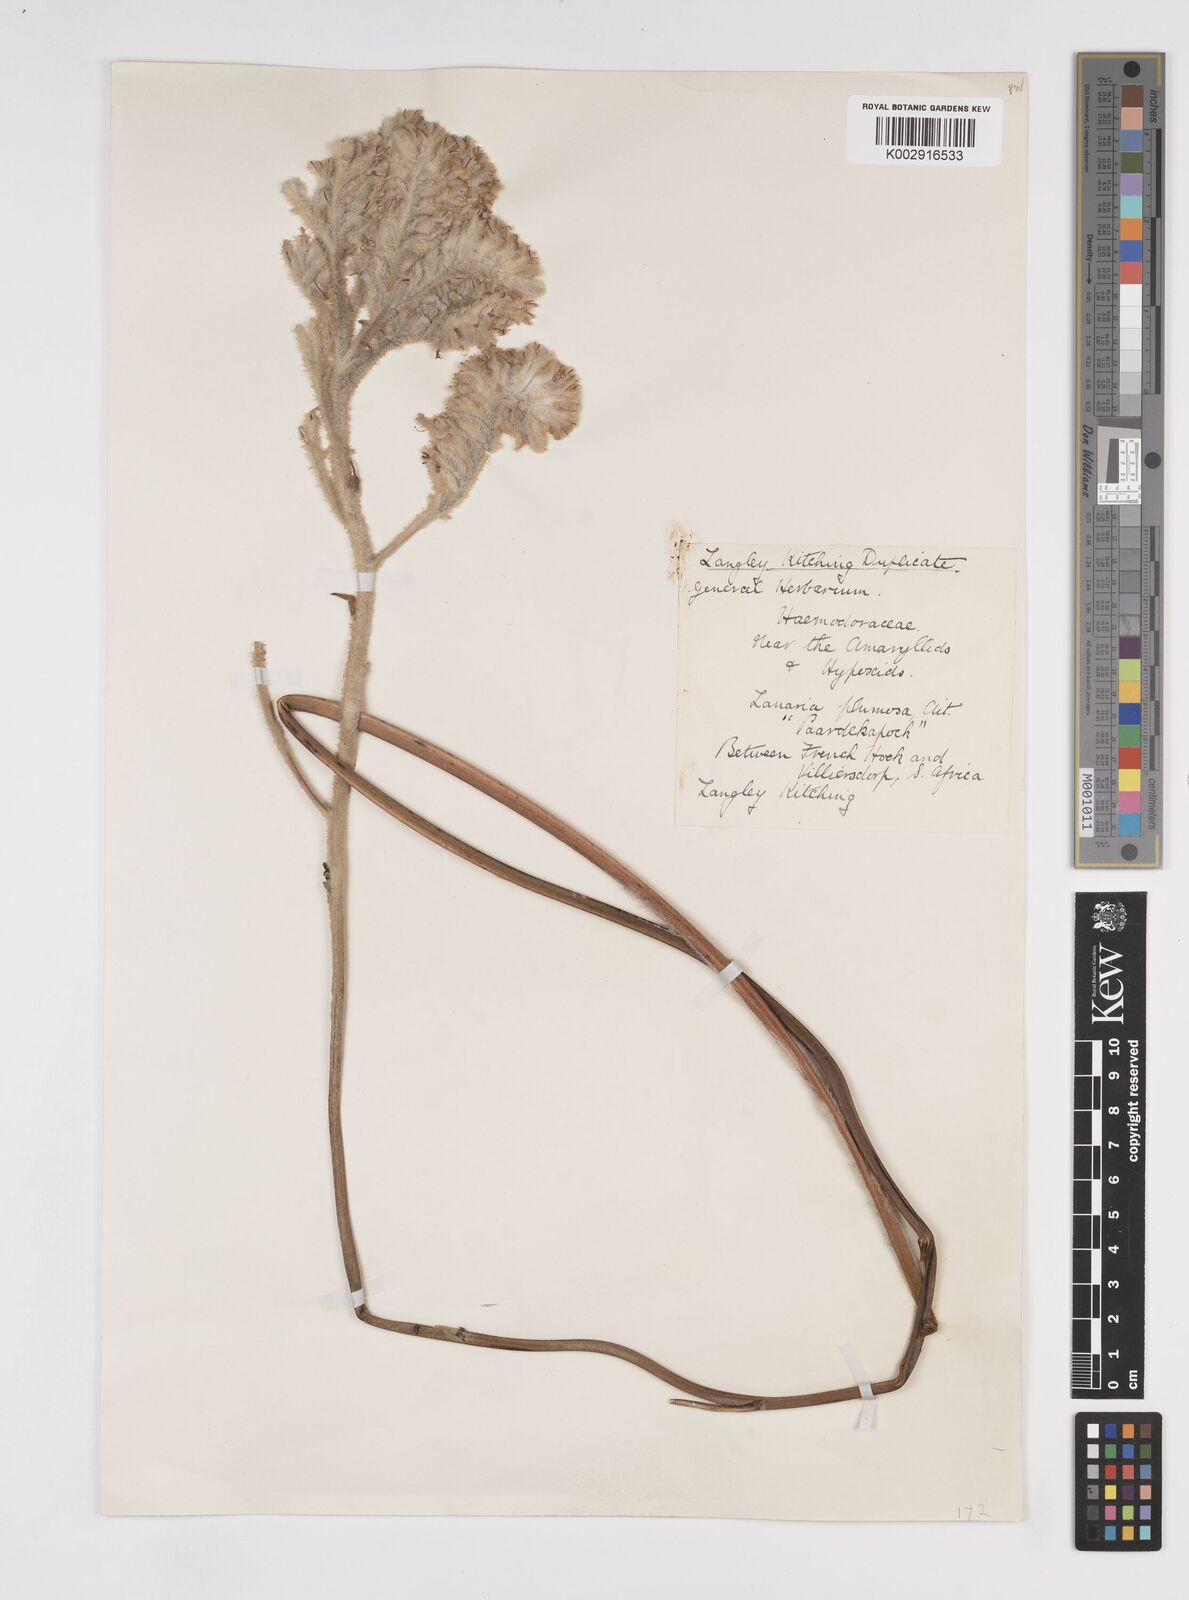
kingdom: Plantae
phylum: Tracheophyta
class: Liliopsida
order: Commelinales
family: Haemodoraceae
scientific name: Haemodoraceae
